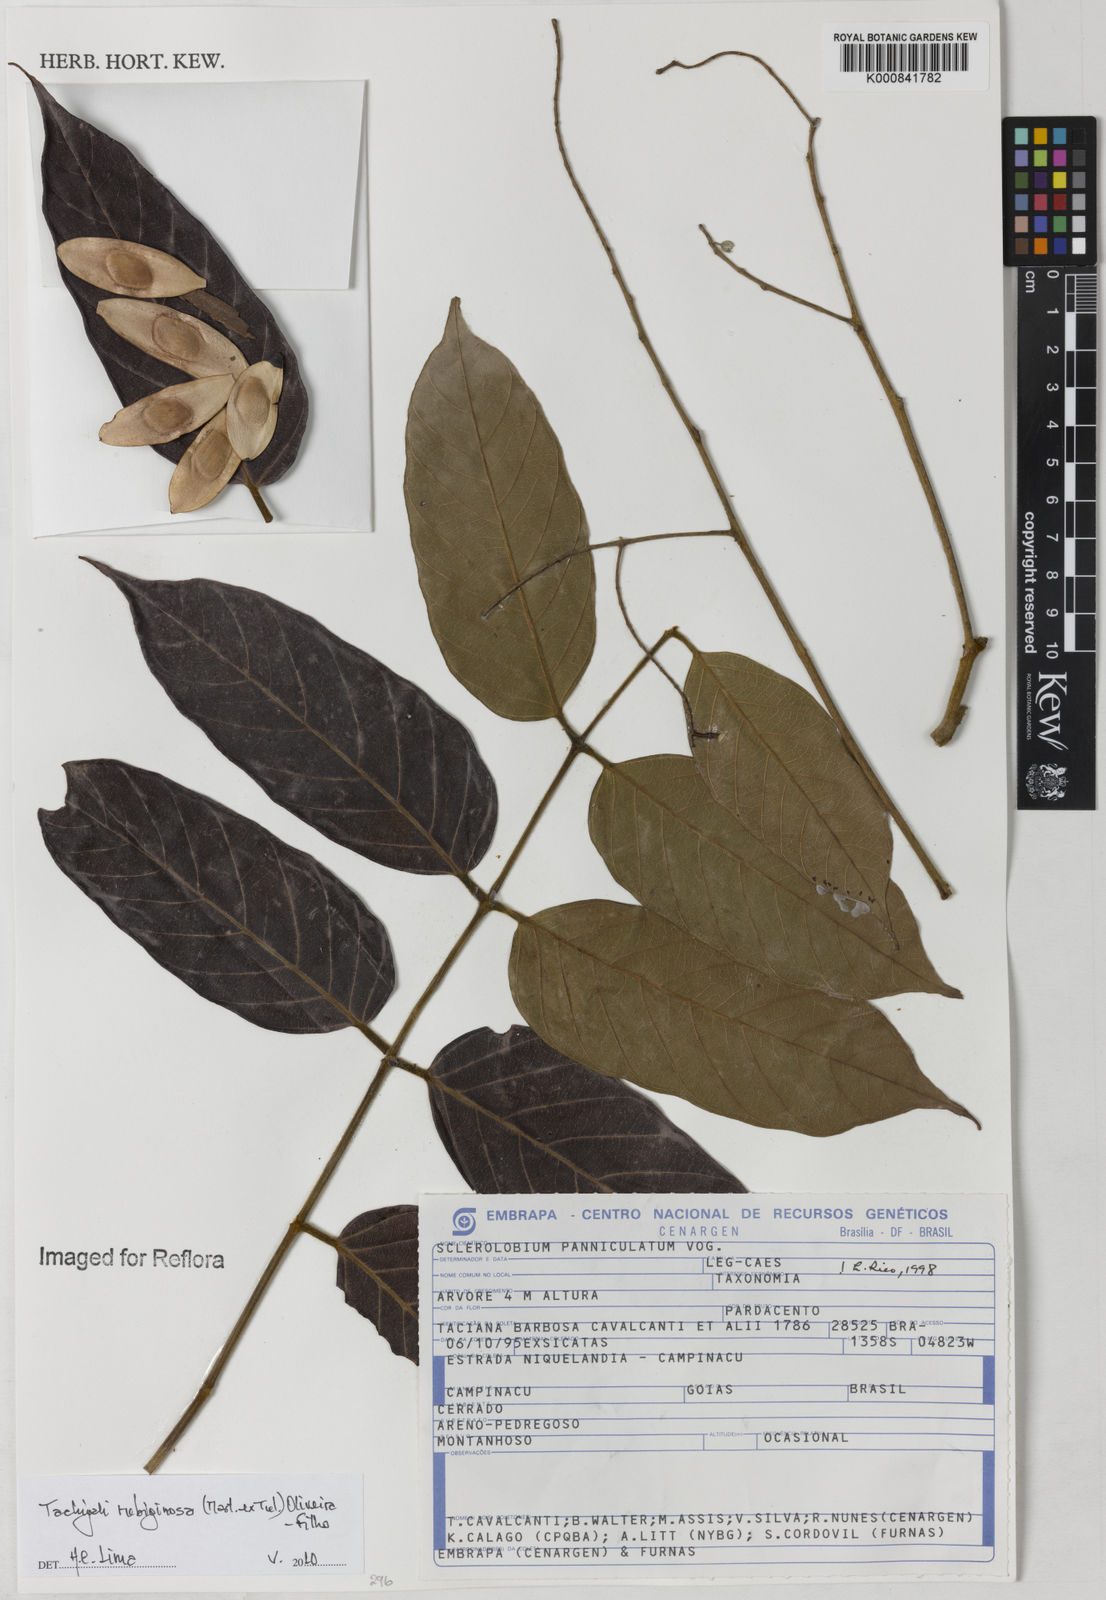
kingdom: Plantae
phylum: Tracheophyta
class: Magnoliopsida
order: Fabales
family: Fabaceae
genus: Tachigali
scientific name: Tachigali rubiginosa
